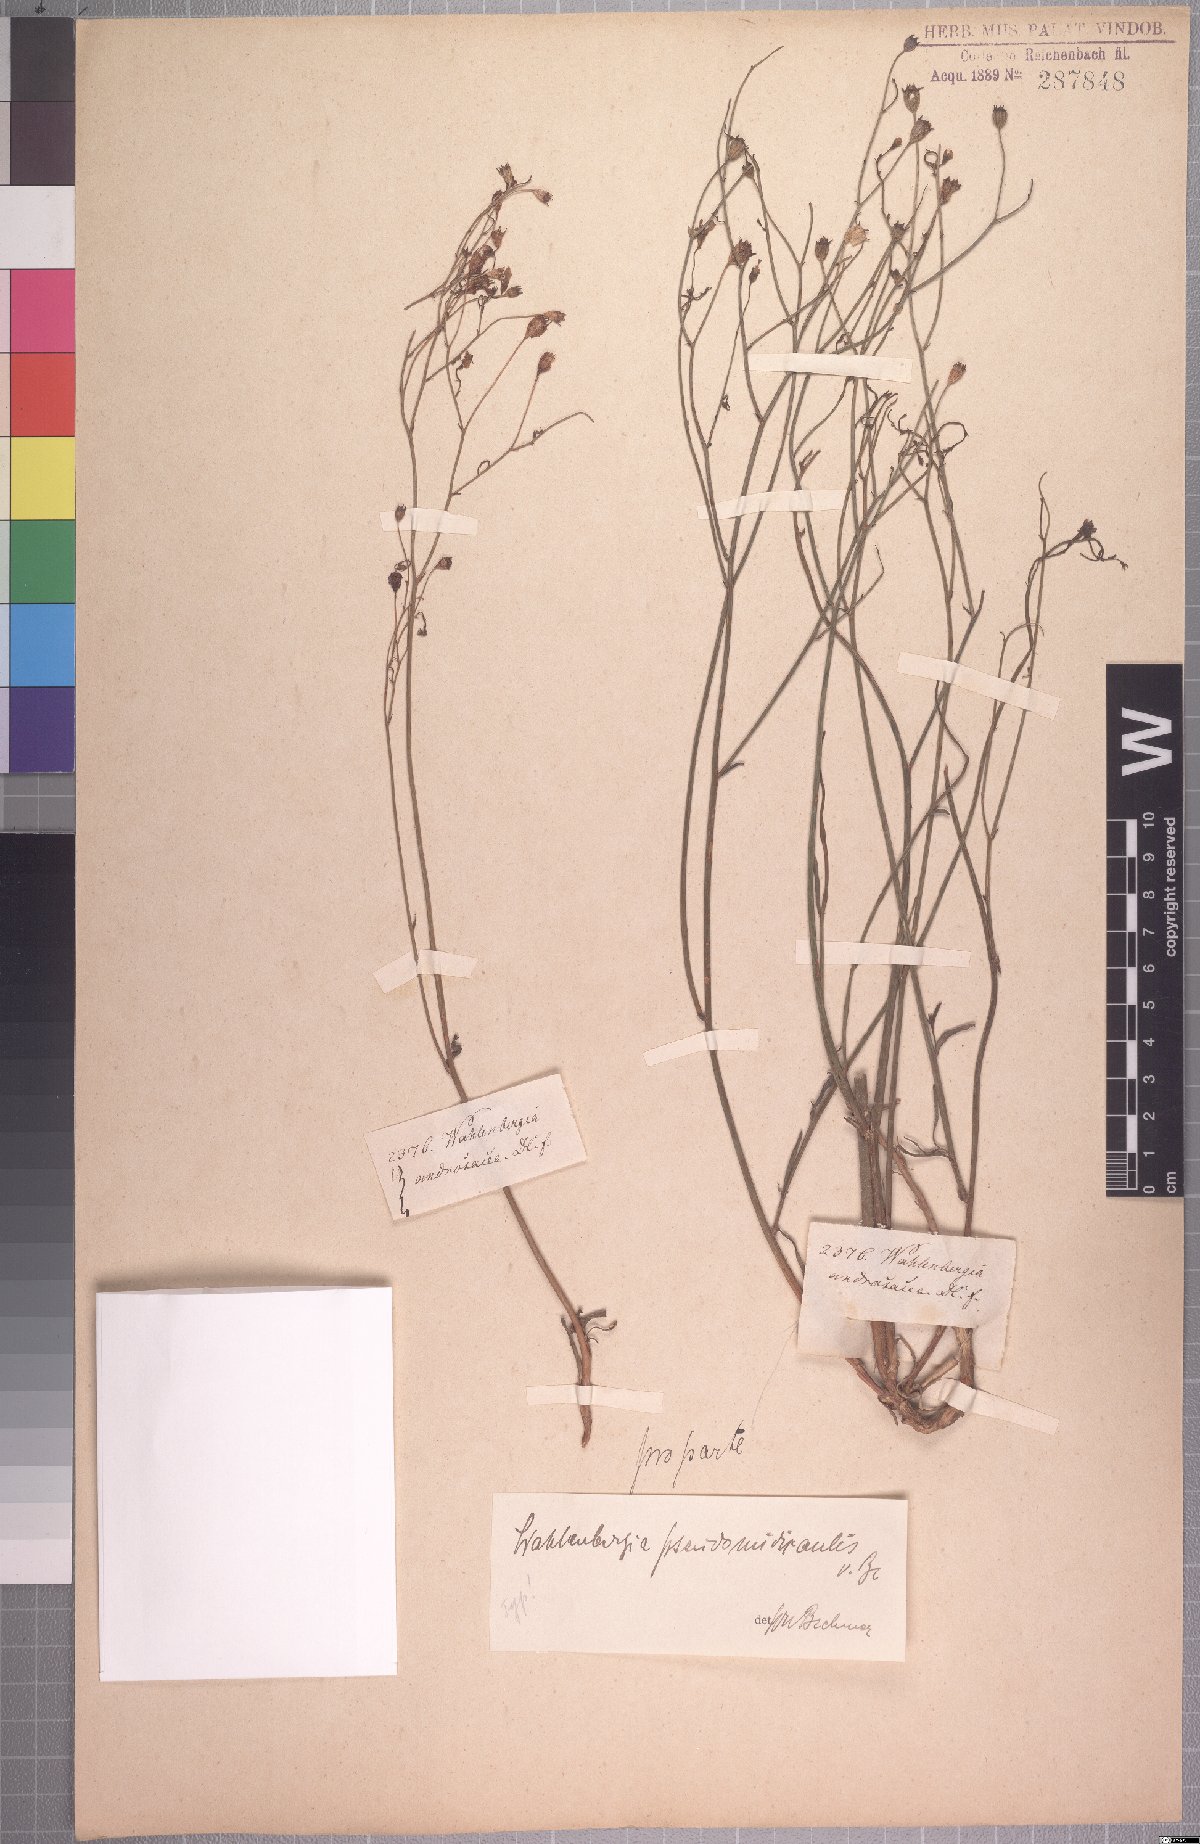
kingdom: Plantae
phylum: Tracheophyta
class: Magnoliopsida
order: Asterales
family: Campanulaceae
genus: Wahlenbergia
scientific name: Wahlenbergia pseudonudicaulis
